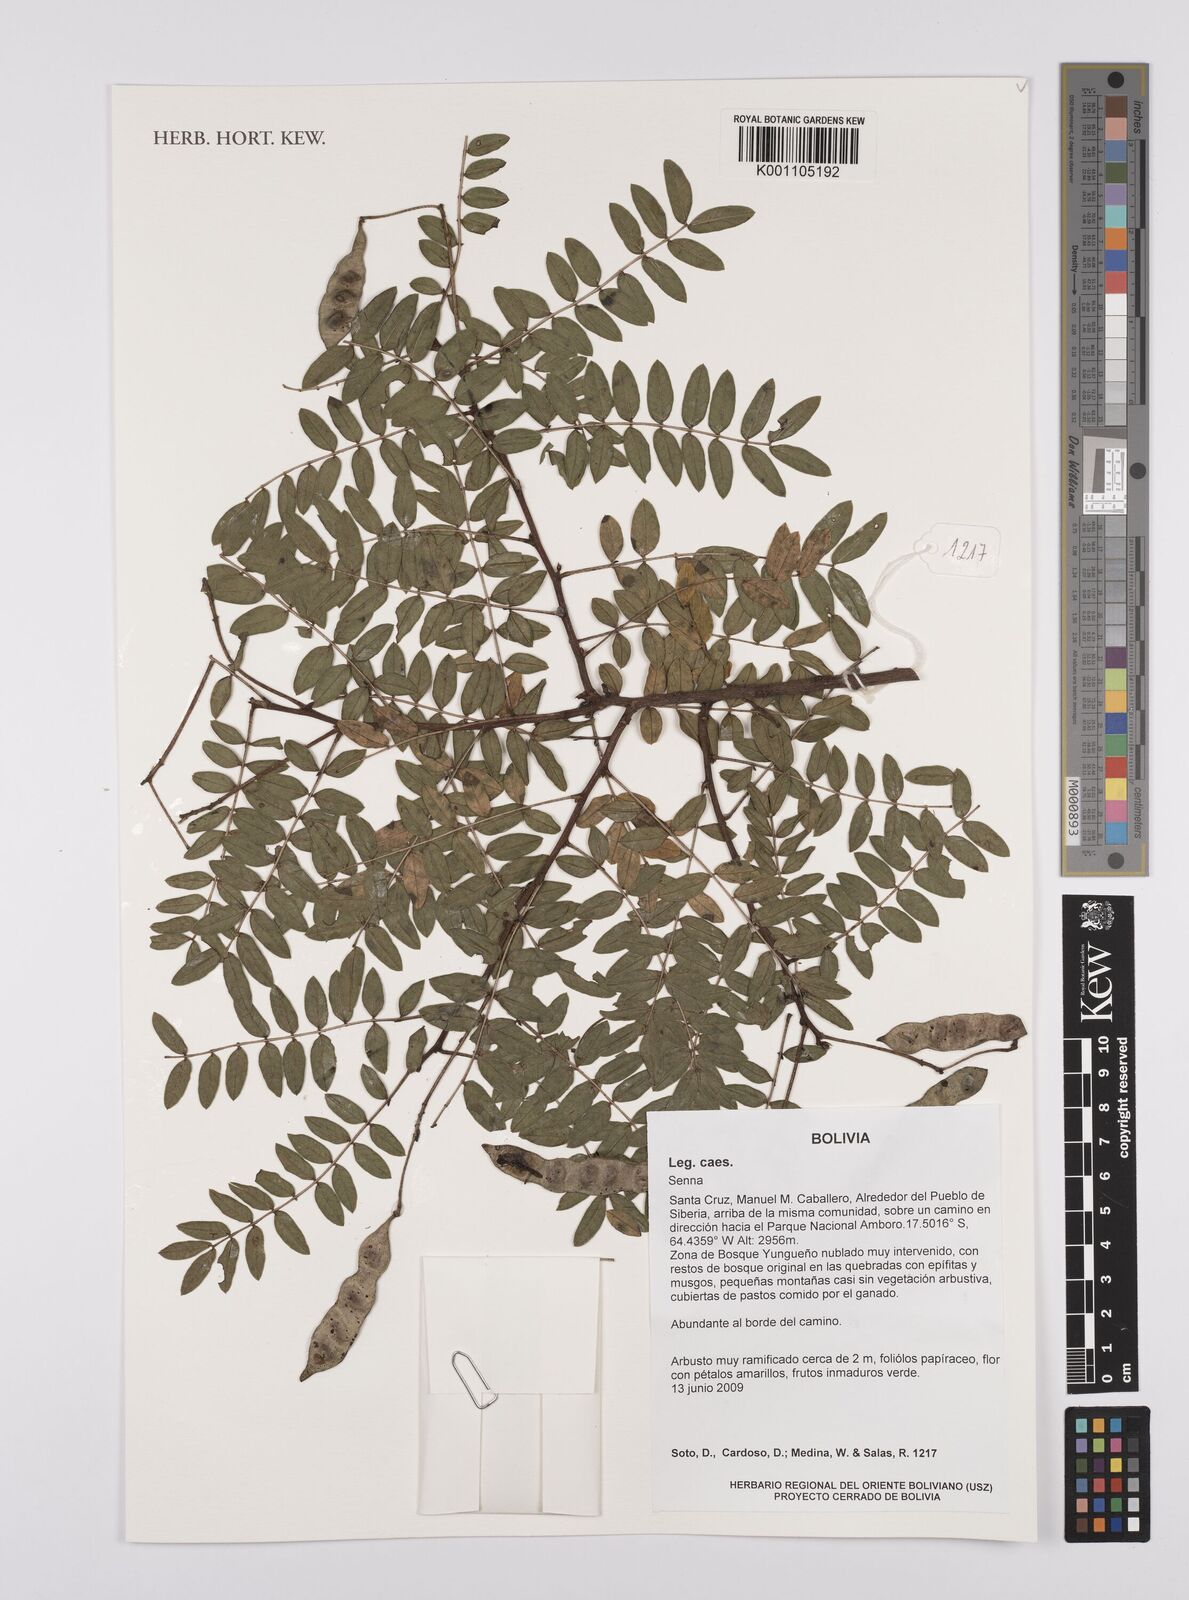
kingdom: Plantae
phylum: Tracheophyta
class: Magnoliopsida
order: Fabales
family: Fabaceae
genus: Senna
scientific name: Senna
